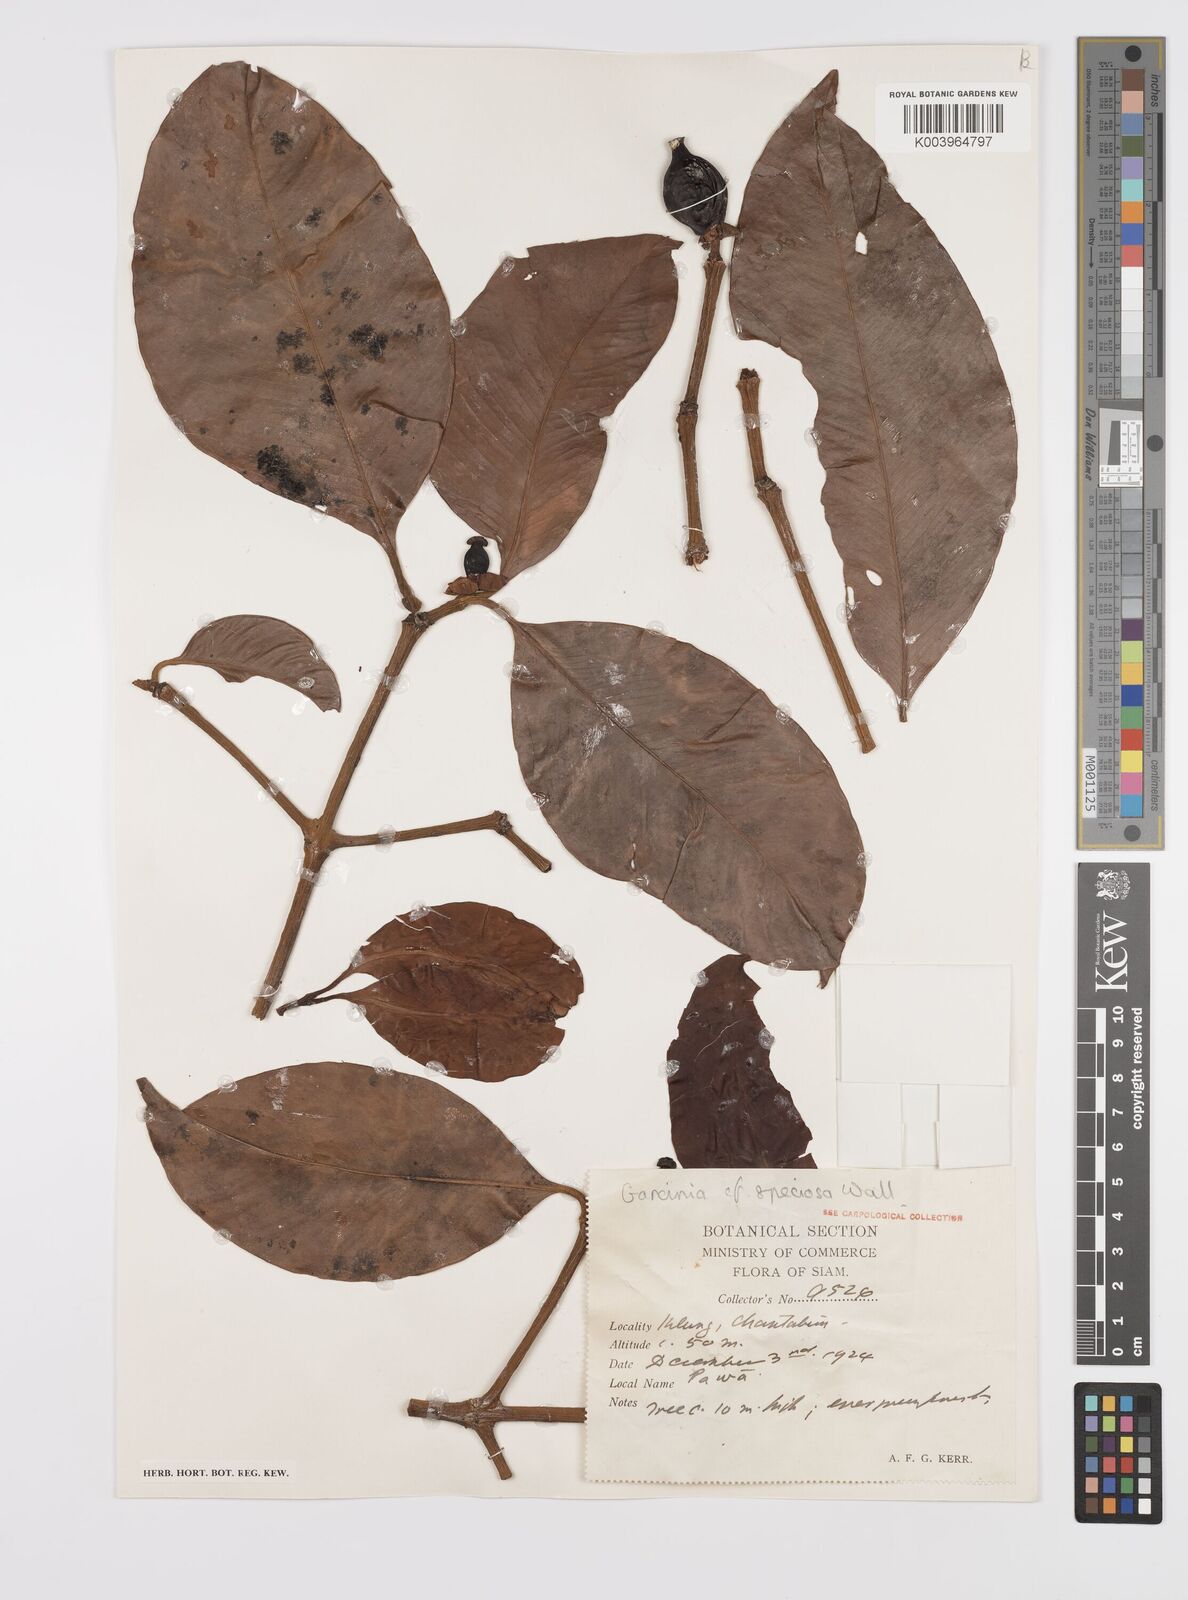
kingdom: Plantae
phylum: Tracheophyta
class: Magnoliopsida
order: Malpighiales
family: Clusiaceae
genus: Garcinia
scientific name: Garcinia celebica
